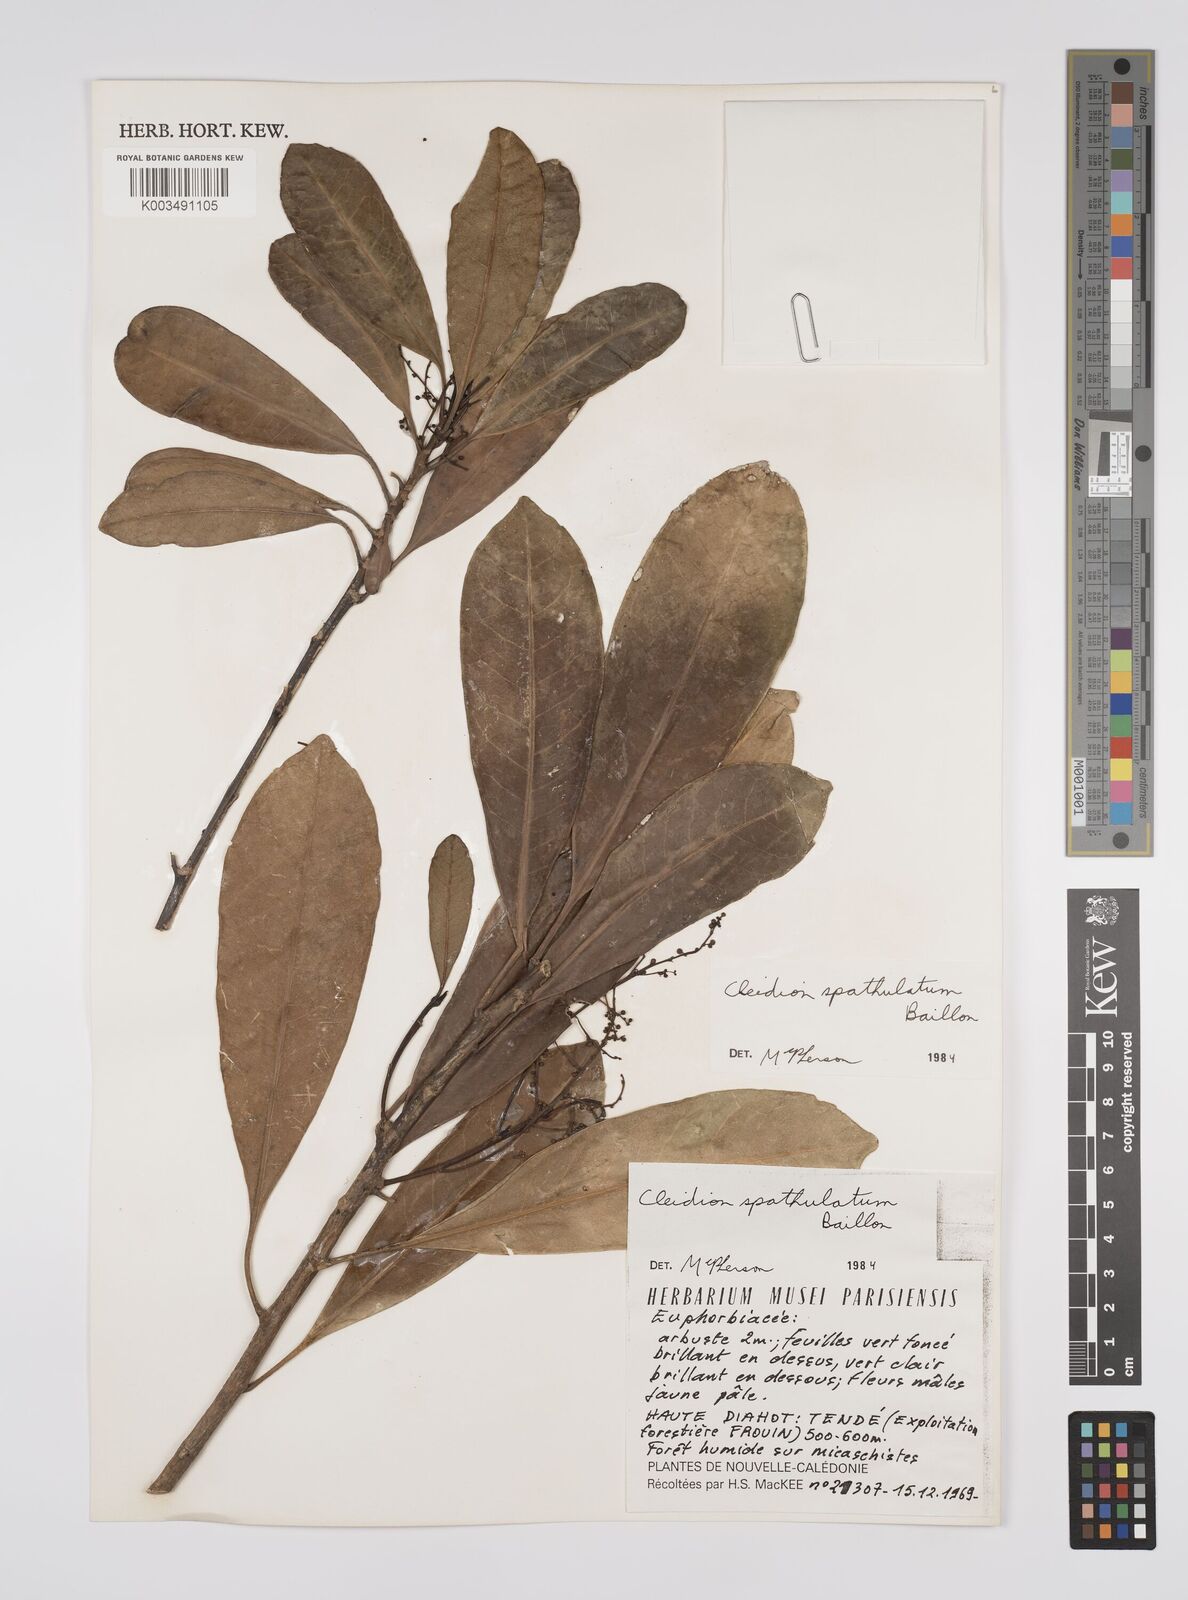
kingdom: Plantae
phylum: Tracheophyta
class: Magnoliopsida
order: Malpighiales
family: Euphorbiaceae
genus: Cleidion
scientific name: Cleidion spathulatum
